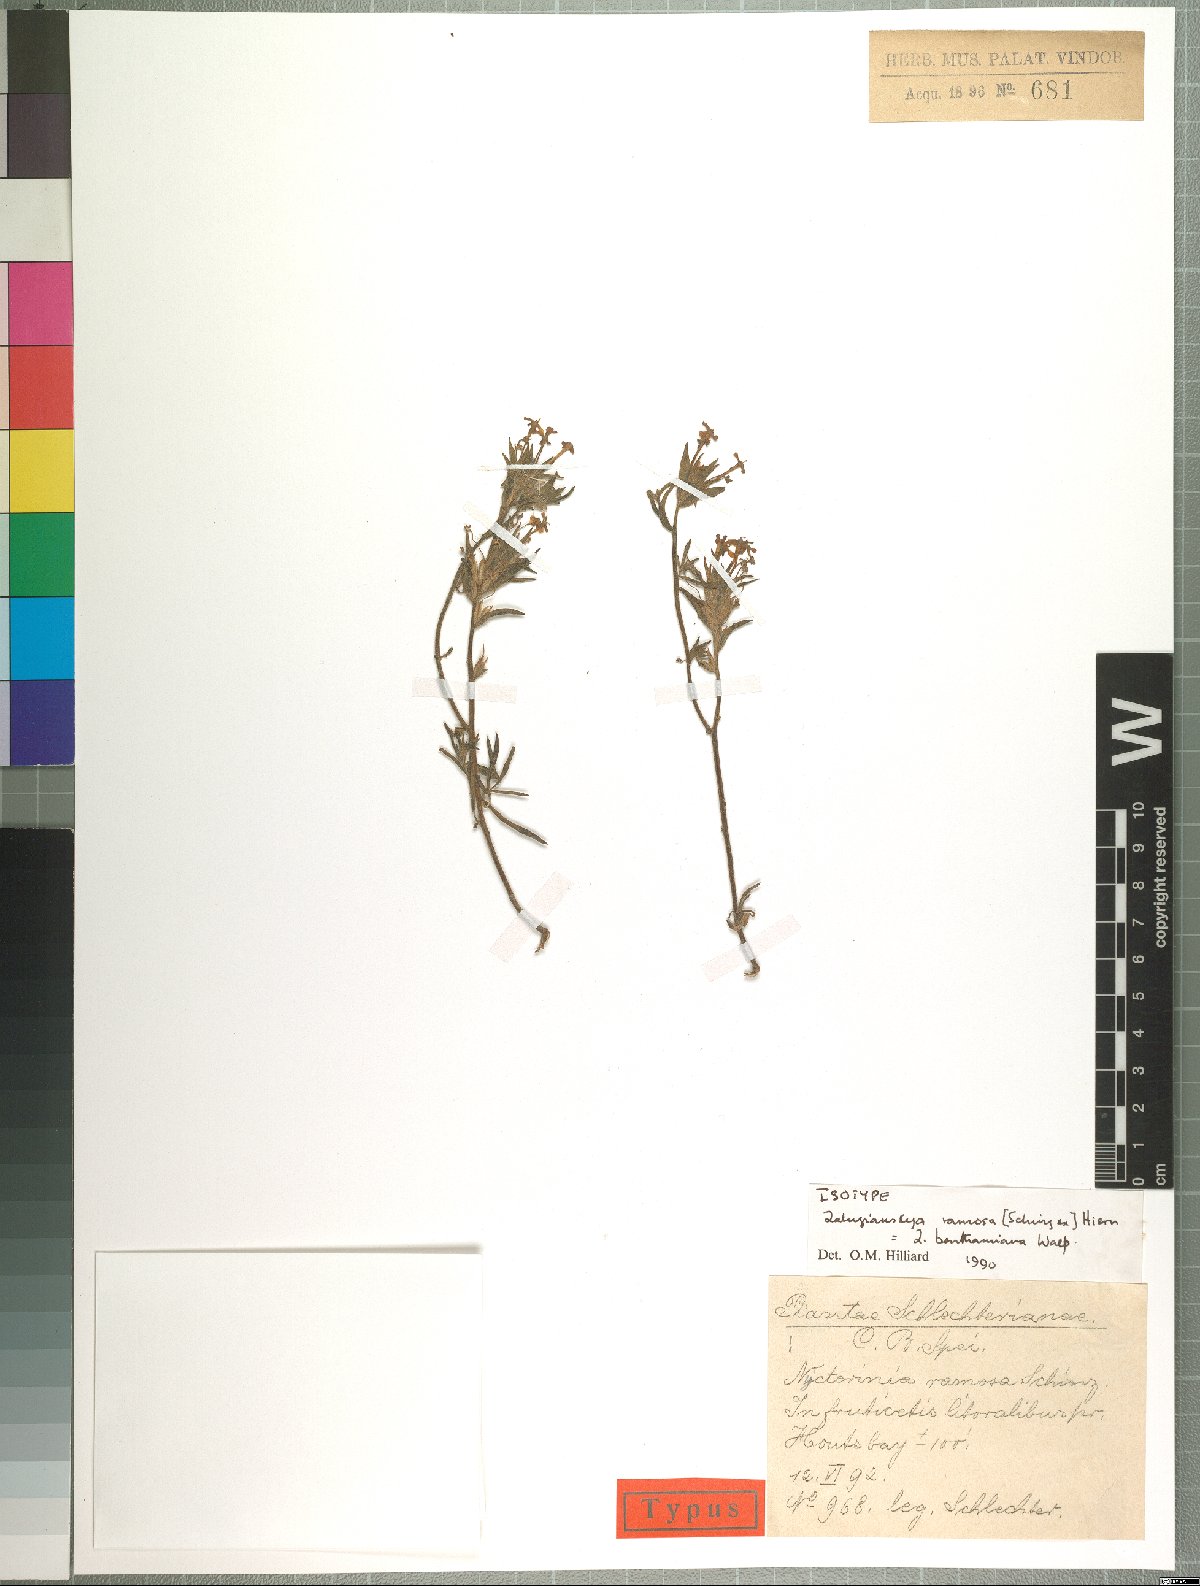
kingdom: Plantae
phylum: Tracheophyta
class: Magnoliopsida
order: Lamiales
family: Scrophulariaceae
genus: Zaluzianskya
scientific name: Zaluzianskya benthamiana
